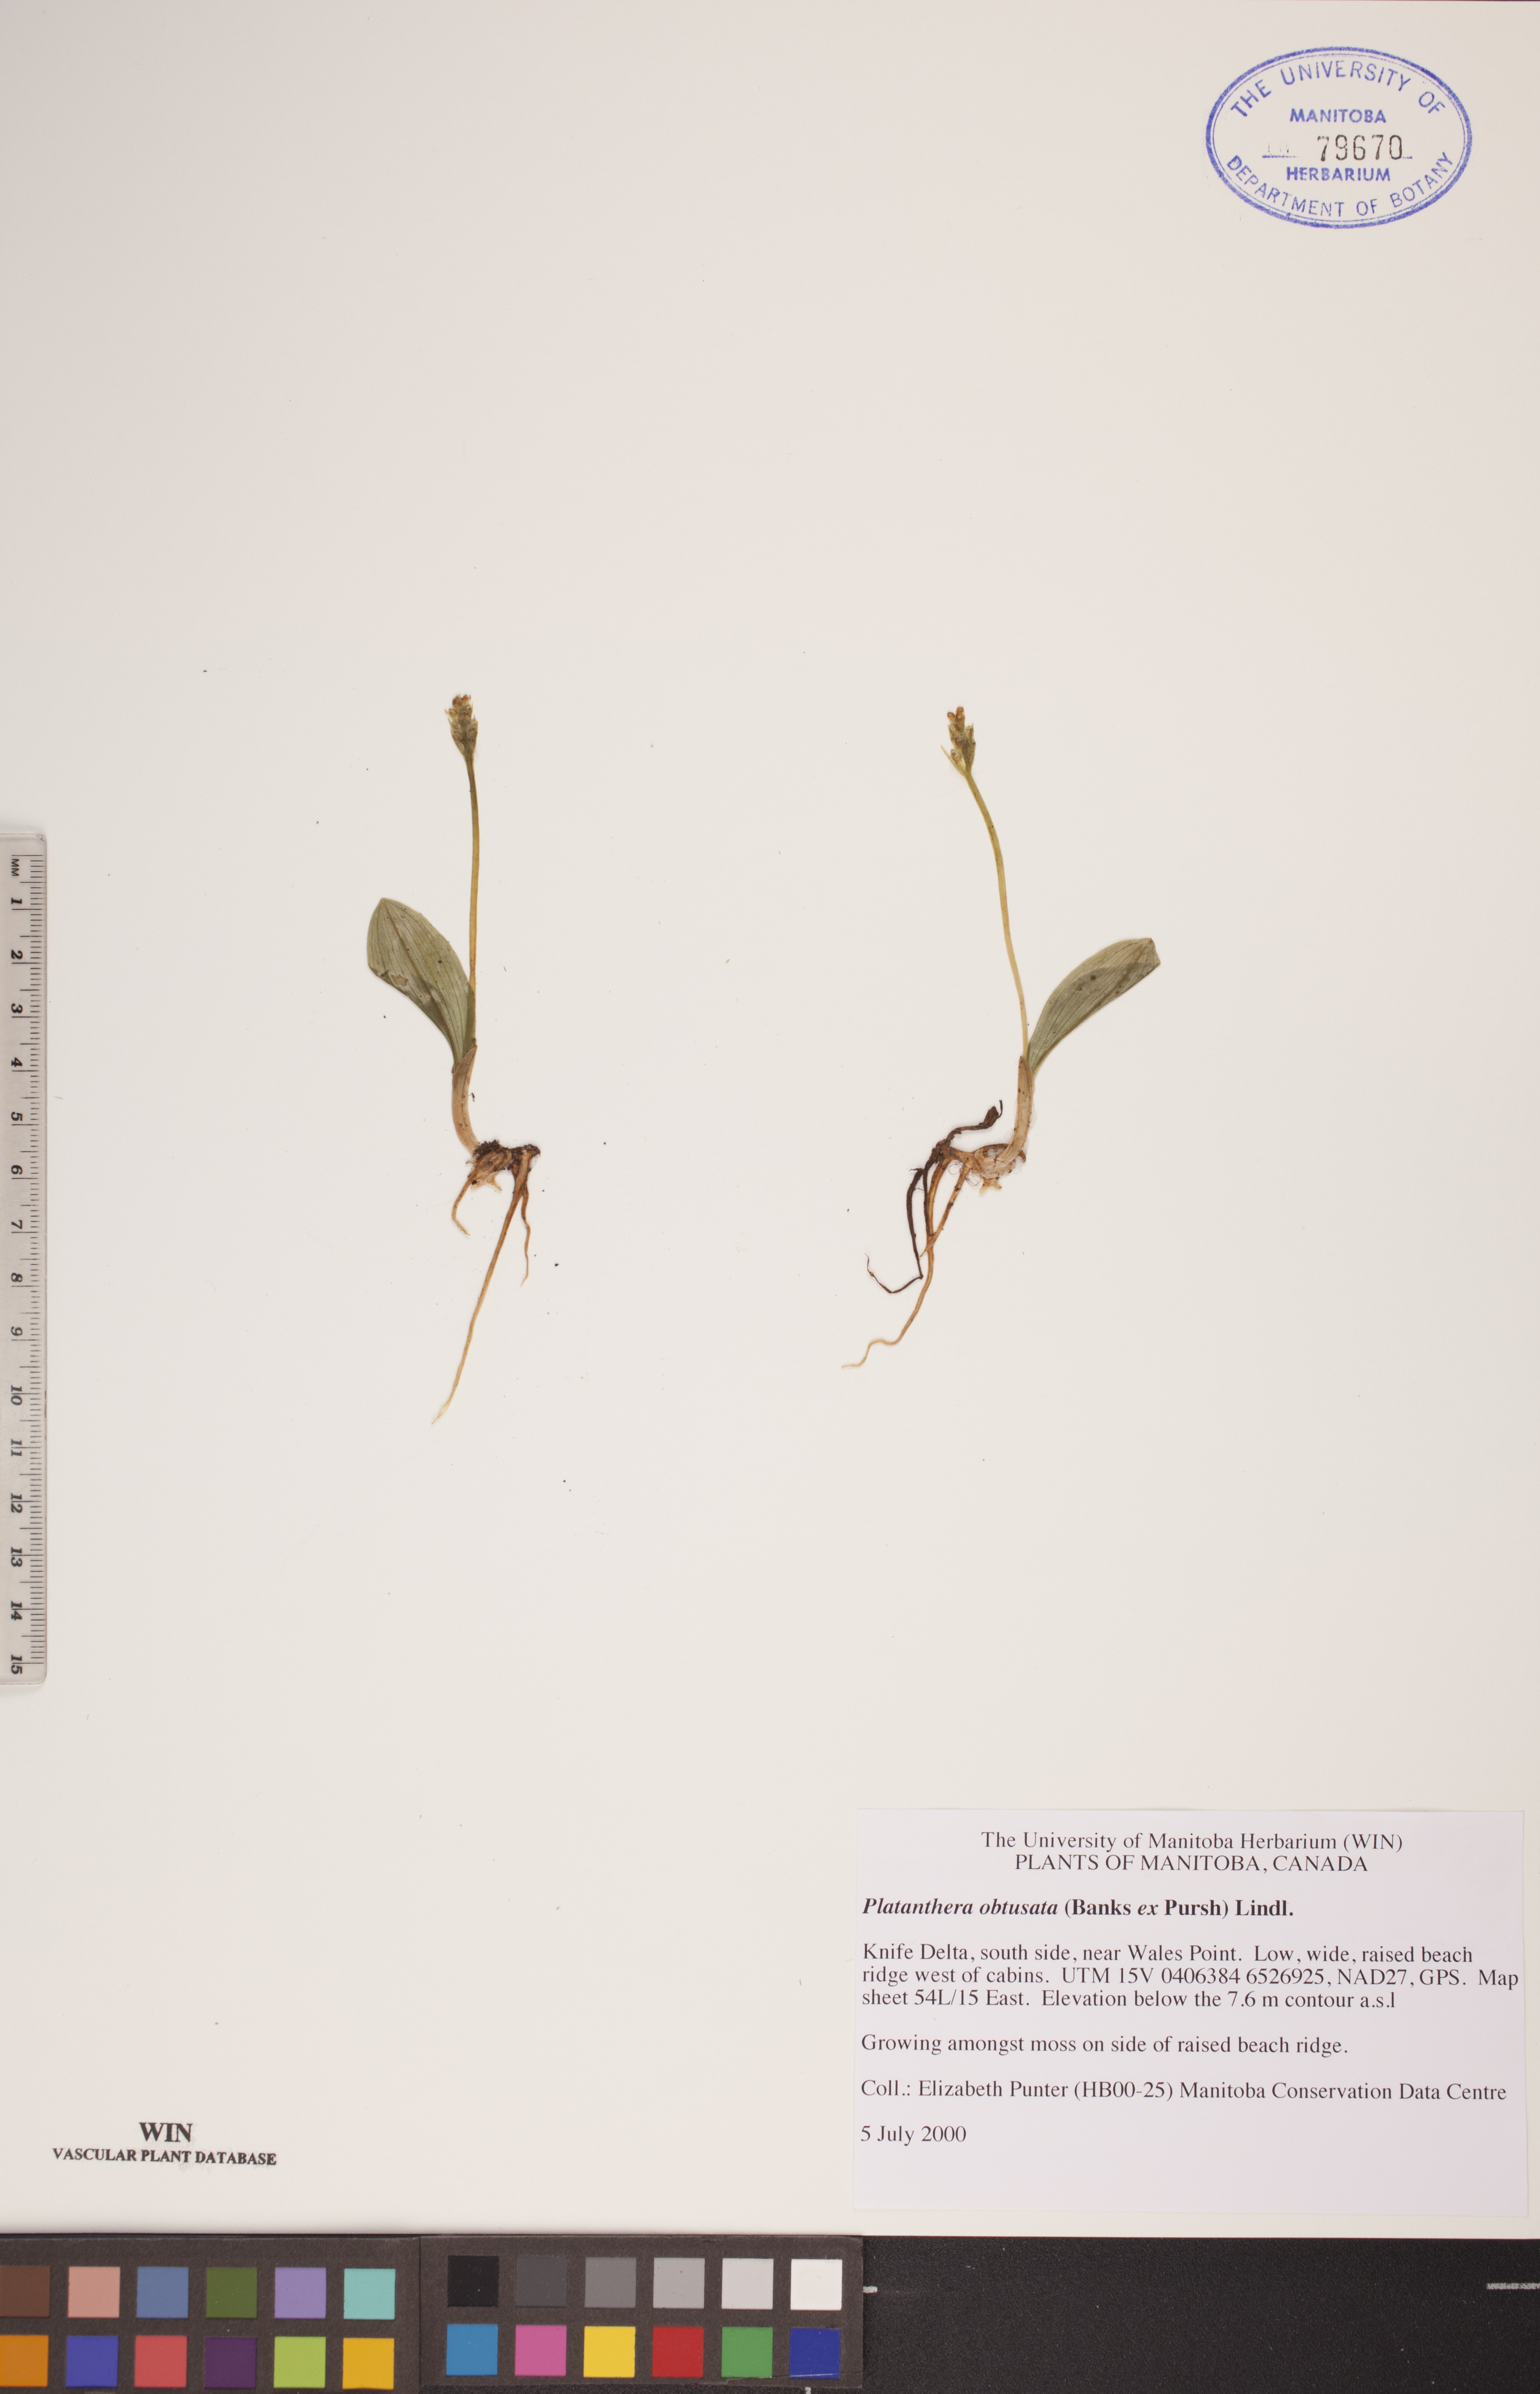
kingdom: Plantae
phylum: Tracheophyta
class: Liliopsida
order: Asparagales
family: Orchidaceae
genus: Platanthera
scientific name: Platanthera obtusata
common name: Blunt bog orchid
